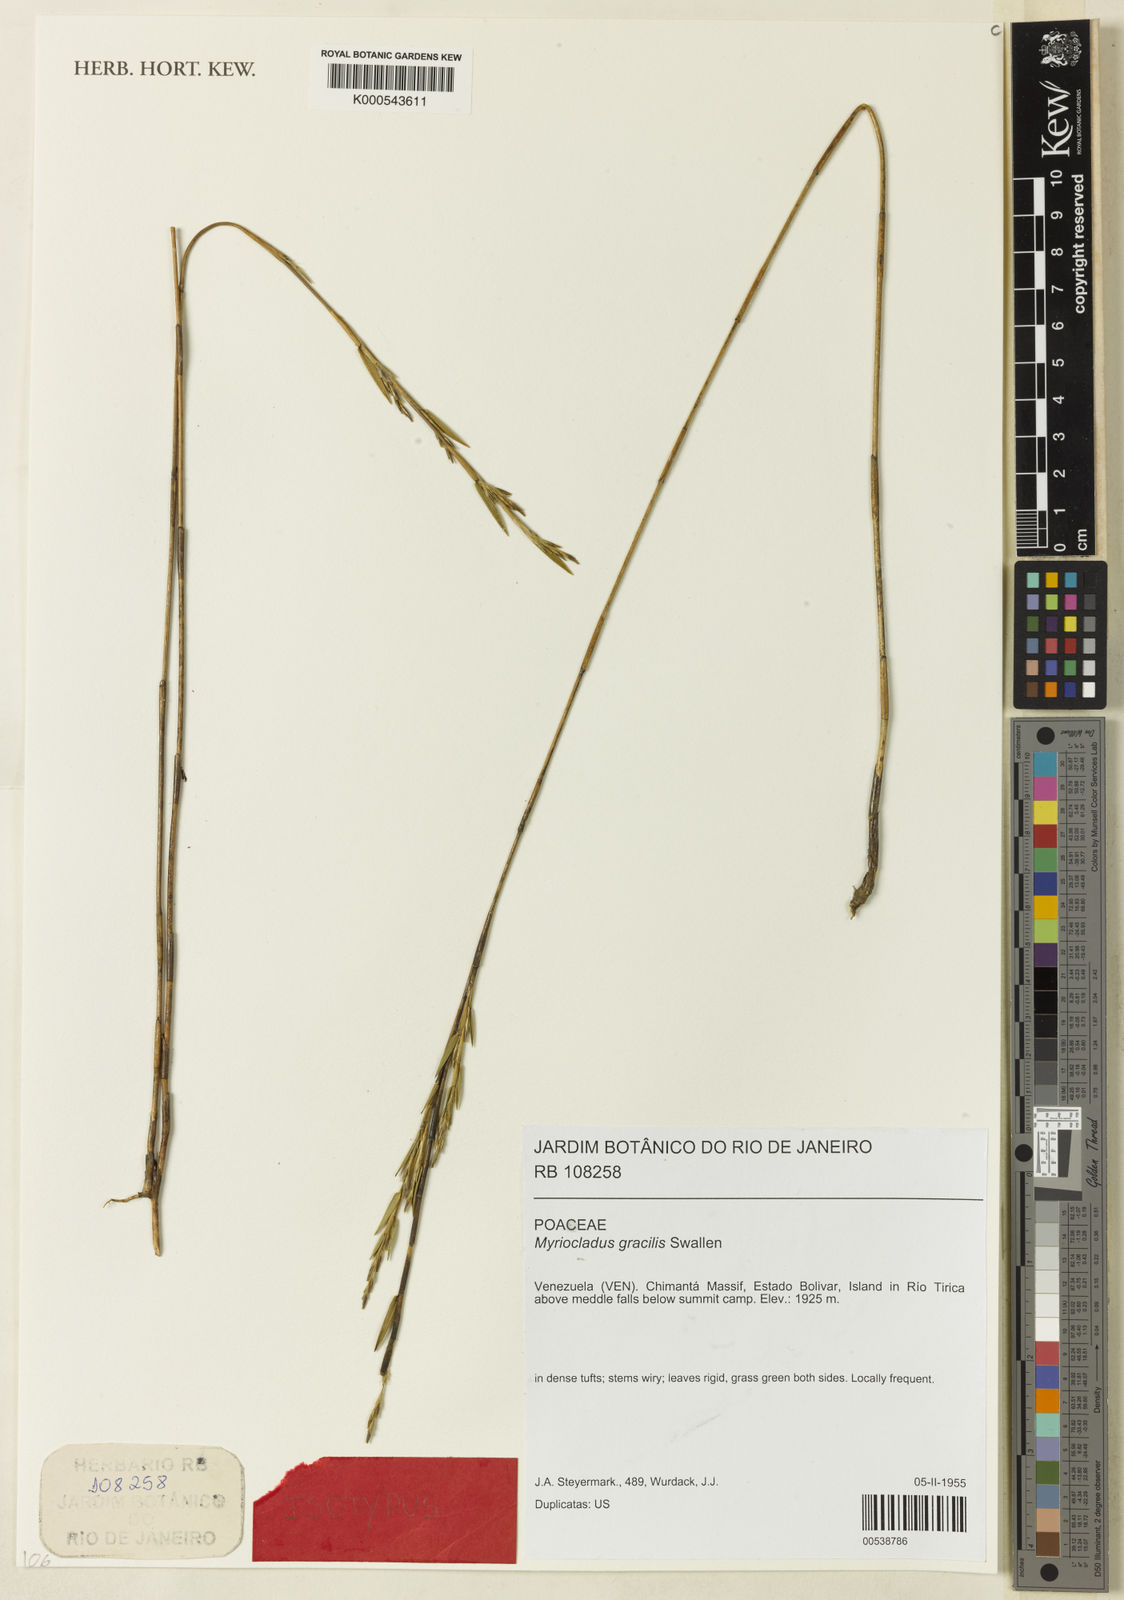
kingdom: Plantae
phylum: Tracheophyta
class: Liliopsida
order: Poales
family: Poaceae
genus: Myriocladus
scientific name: Myriocladus steyermarkii
